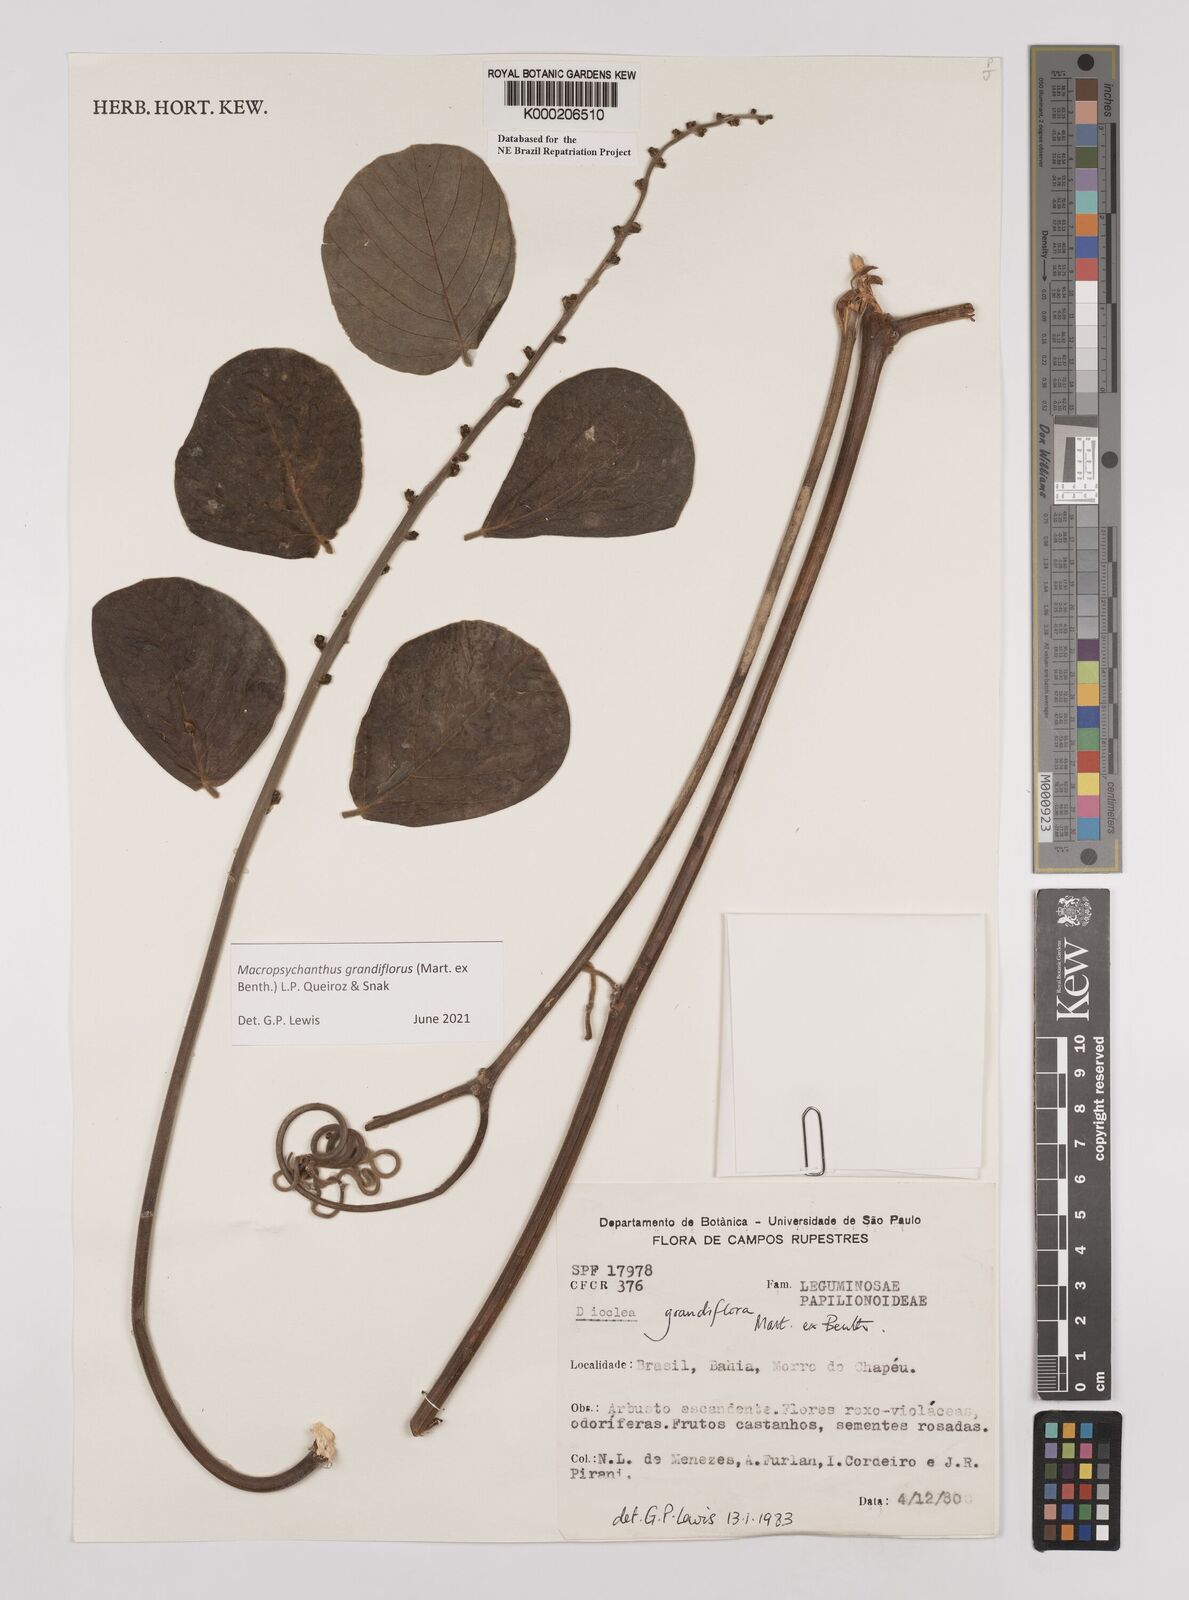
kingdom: Plantae
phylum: Tracheophyta
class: Magnoliopsida
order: Fabales
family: Fabaceae
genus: Macropsychanthus
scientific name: Macropsychanthus grandiflorus
